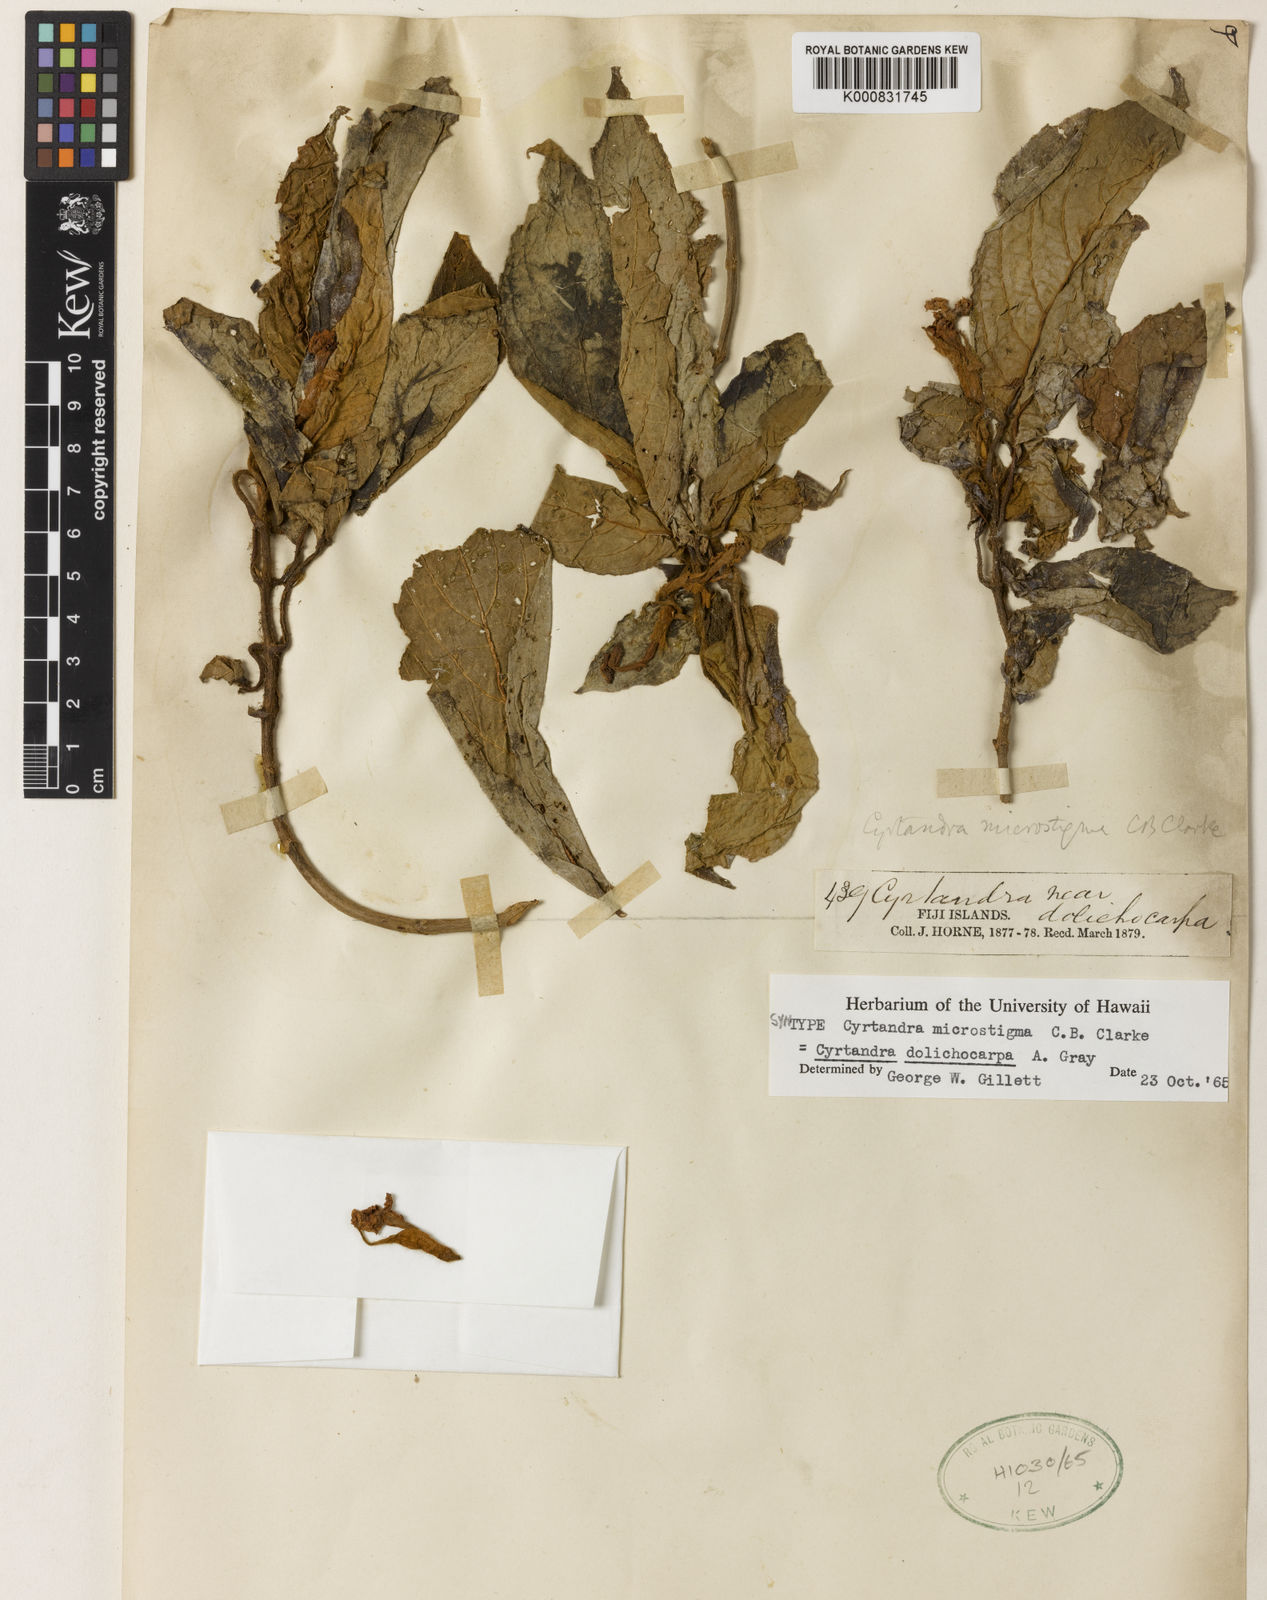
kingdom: Plantae
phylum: Tracheophyta
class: Magnoliopsida
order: Lamiales
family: Gesneriaceae
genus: Cyrtandra
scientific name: Cyrtandra dolichocarpa
